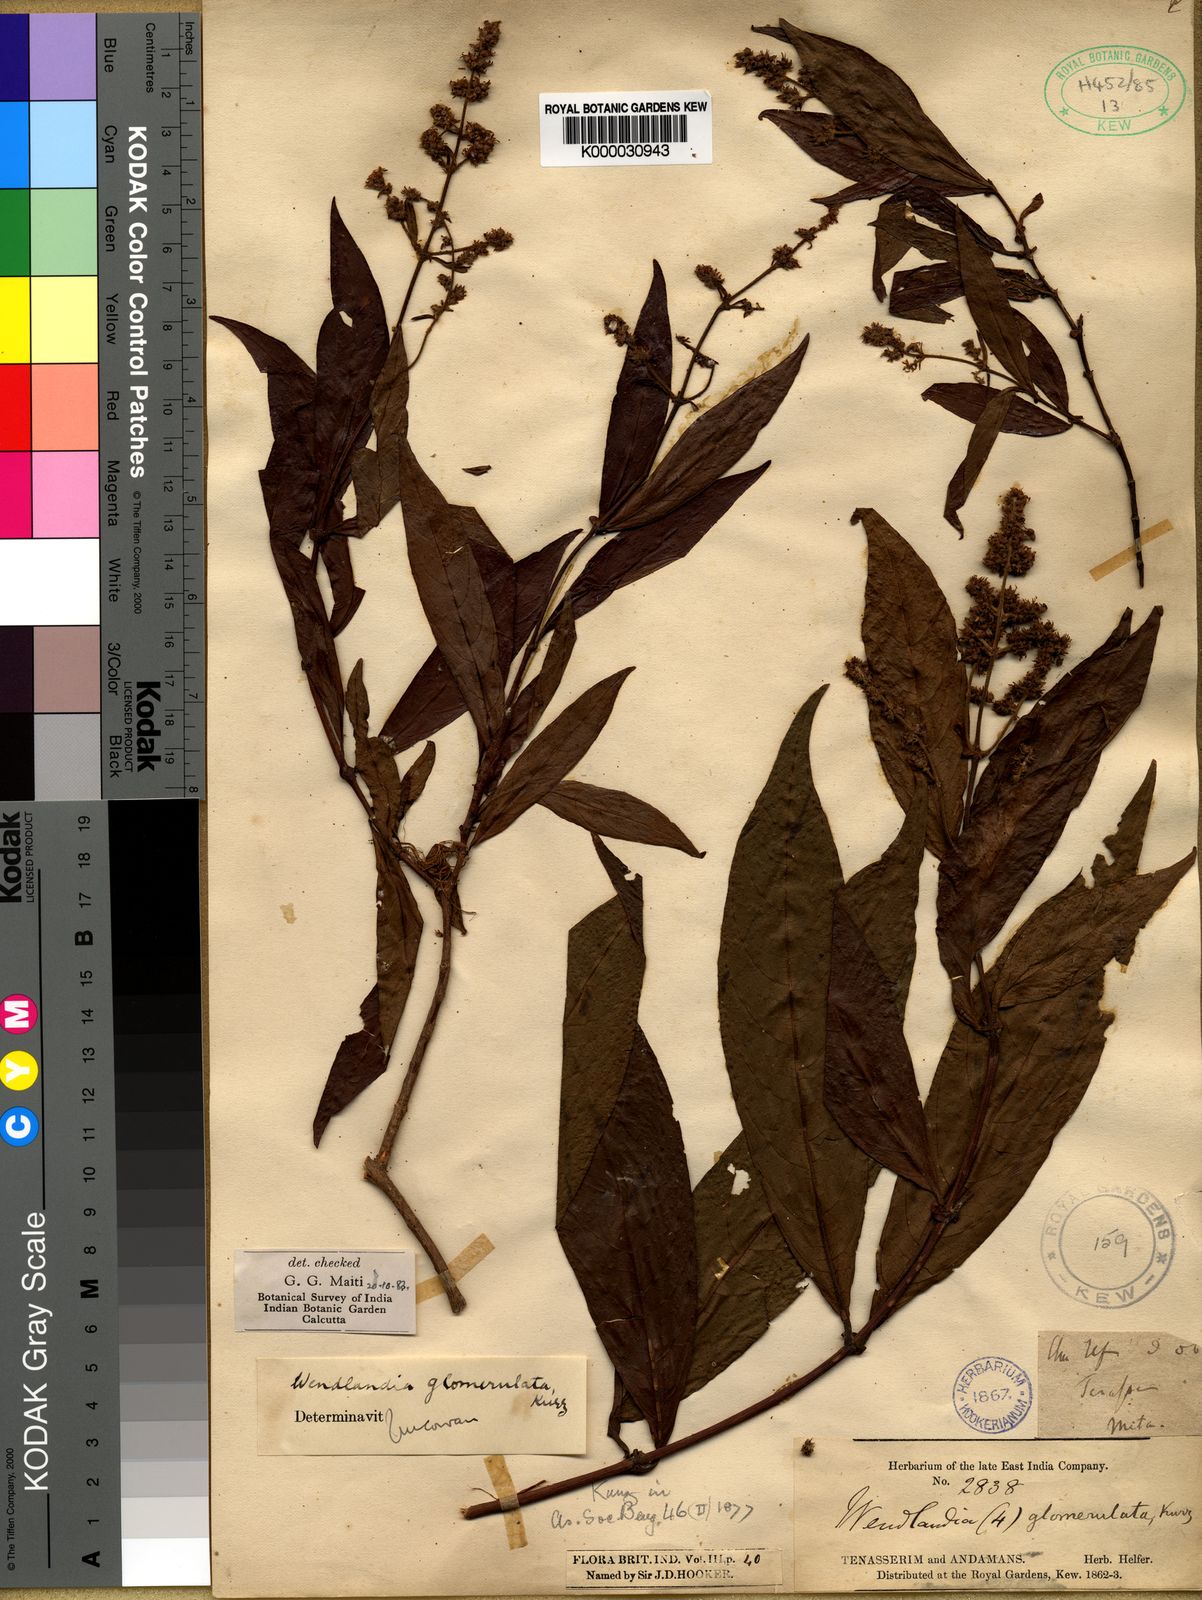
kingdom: Plantae
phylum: Tracheophyta
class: Magnoliopsida
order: Gentianales
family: Rubiaceae
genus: Wendlandia
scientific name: Wendlandia glomerulata
